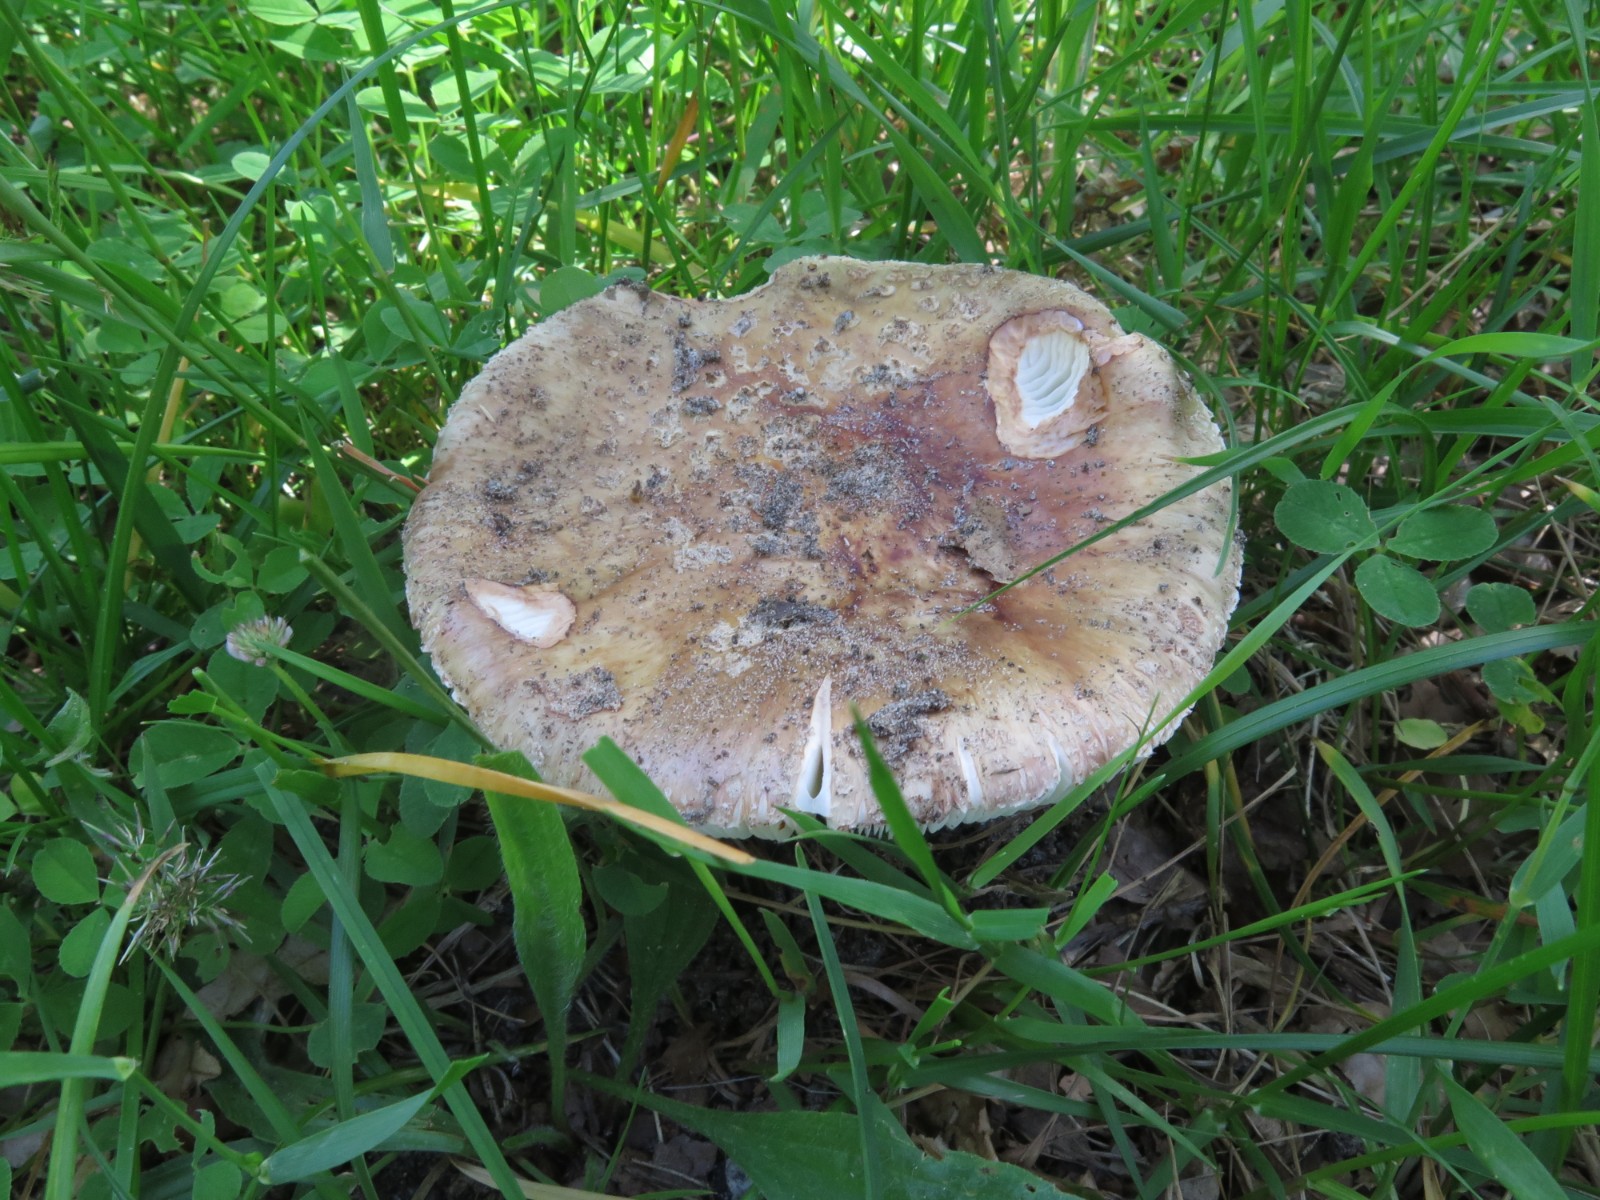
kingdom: Fungi
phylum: Basidiomycota
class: Agaricomycetes
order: Agaricales
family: Amanitaceae
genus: Amanita
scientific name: Amanita rubescens
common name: rødmende fluesvamp
